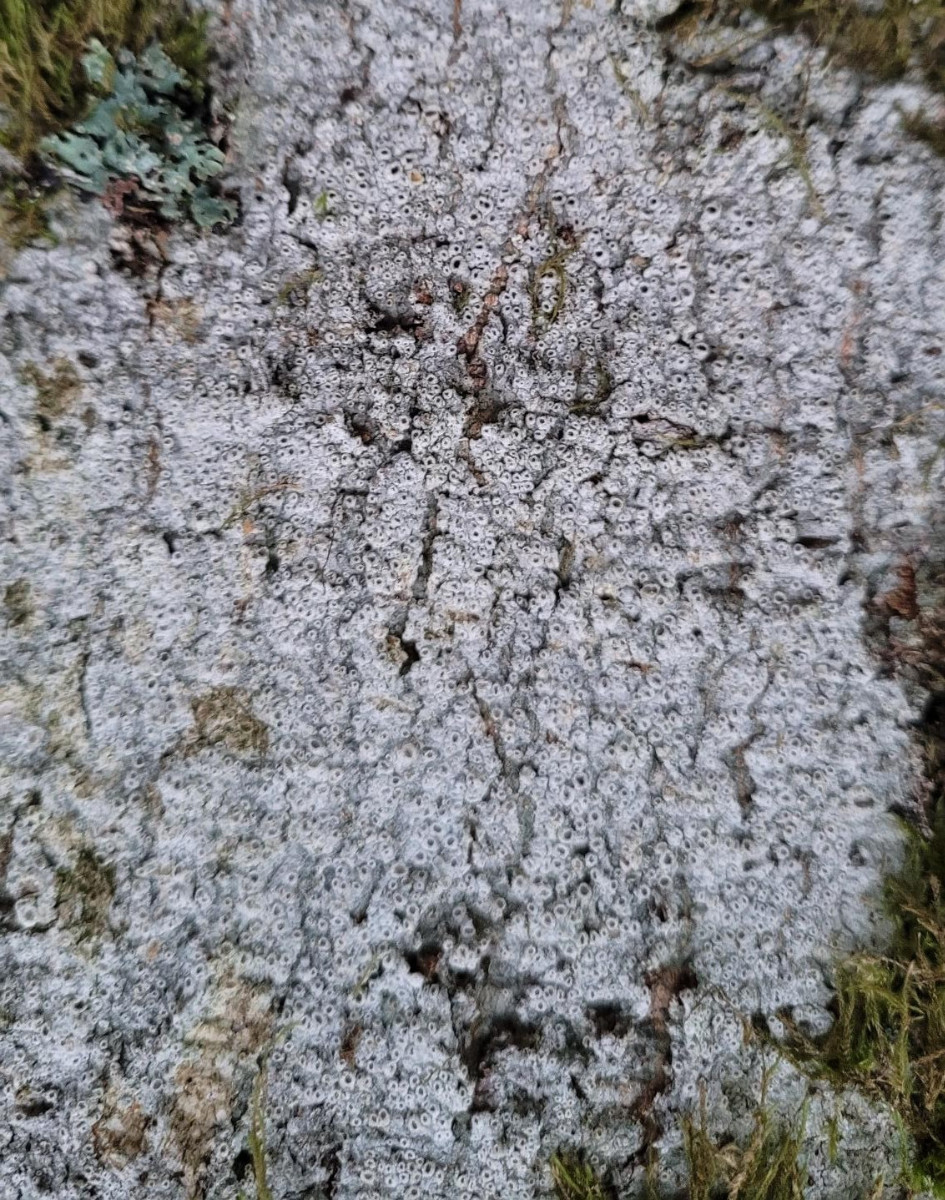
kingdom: Fungi
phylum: Ascomycota
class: Lecanoromycetes
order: Ostropales
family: Graphidaceae
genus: Thelotrema
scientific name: Thelotrema lepadinum
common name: almindelig slørkantlav
